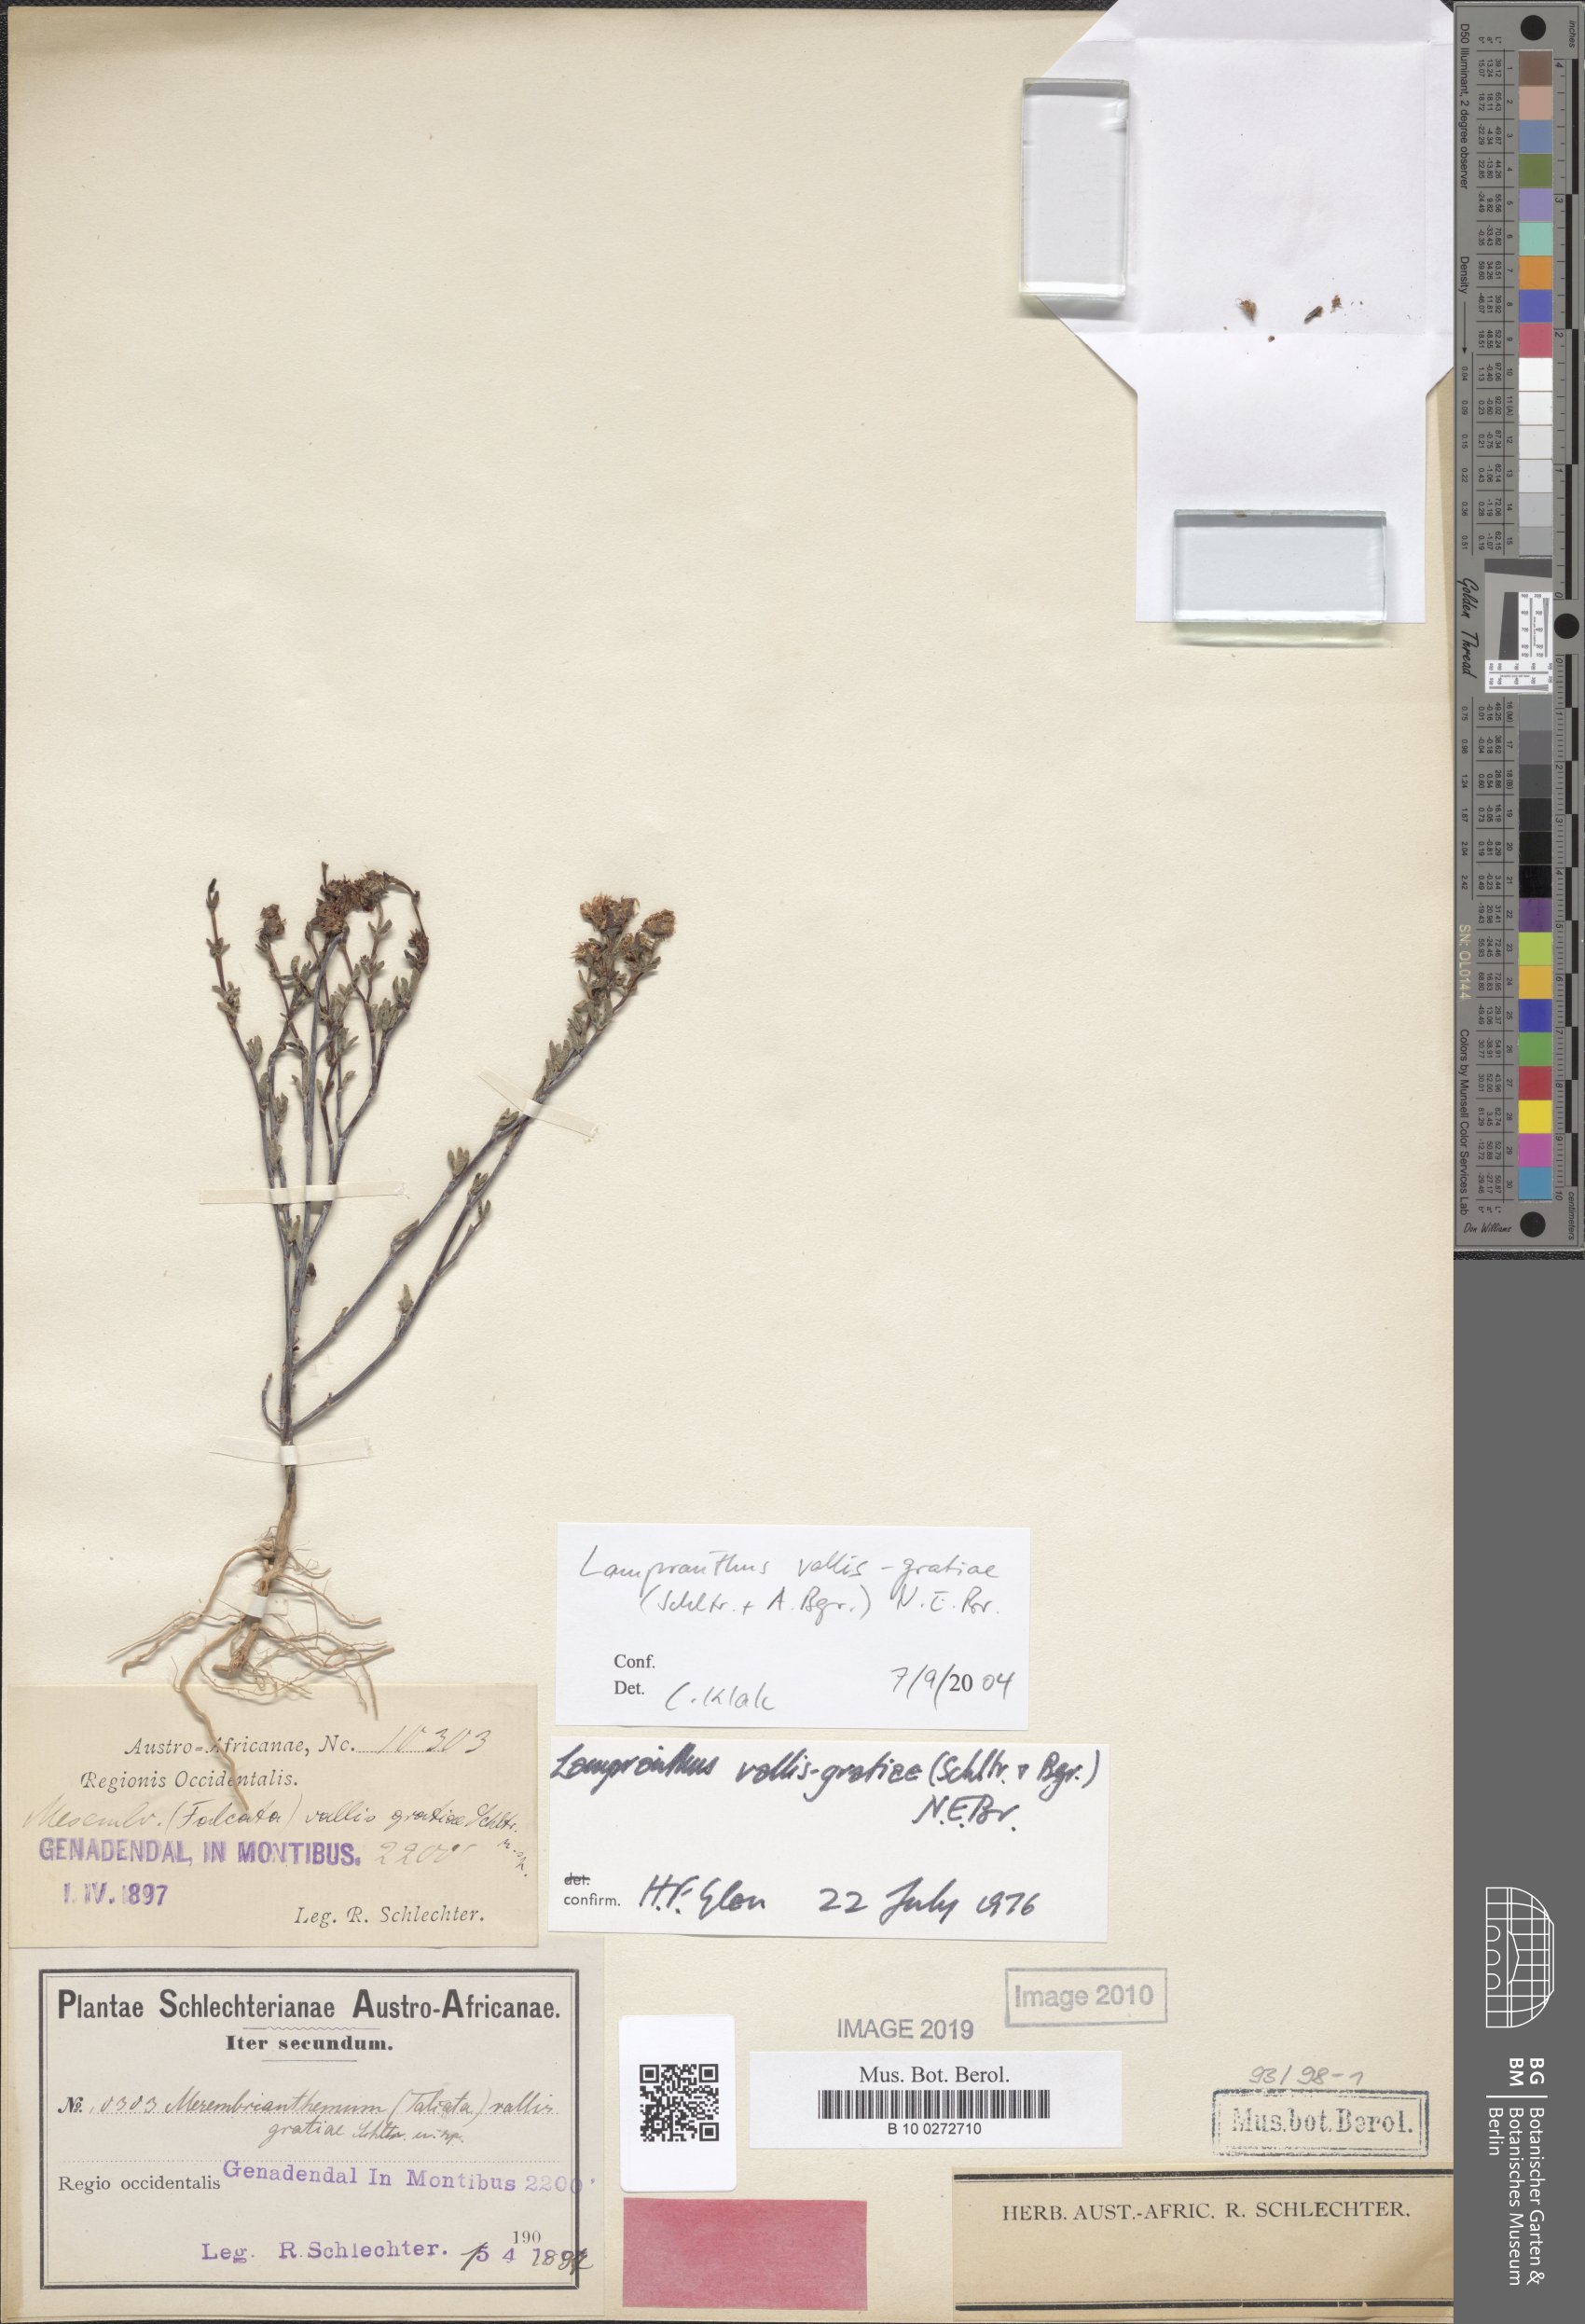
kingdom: Plantae
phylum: Tracheophyta
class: Magnoliopsida
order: Caryophyllales
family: Aizoaceae
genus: Lampranthus
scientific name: Lampranthus vallis-gratiae
